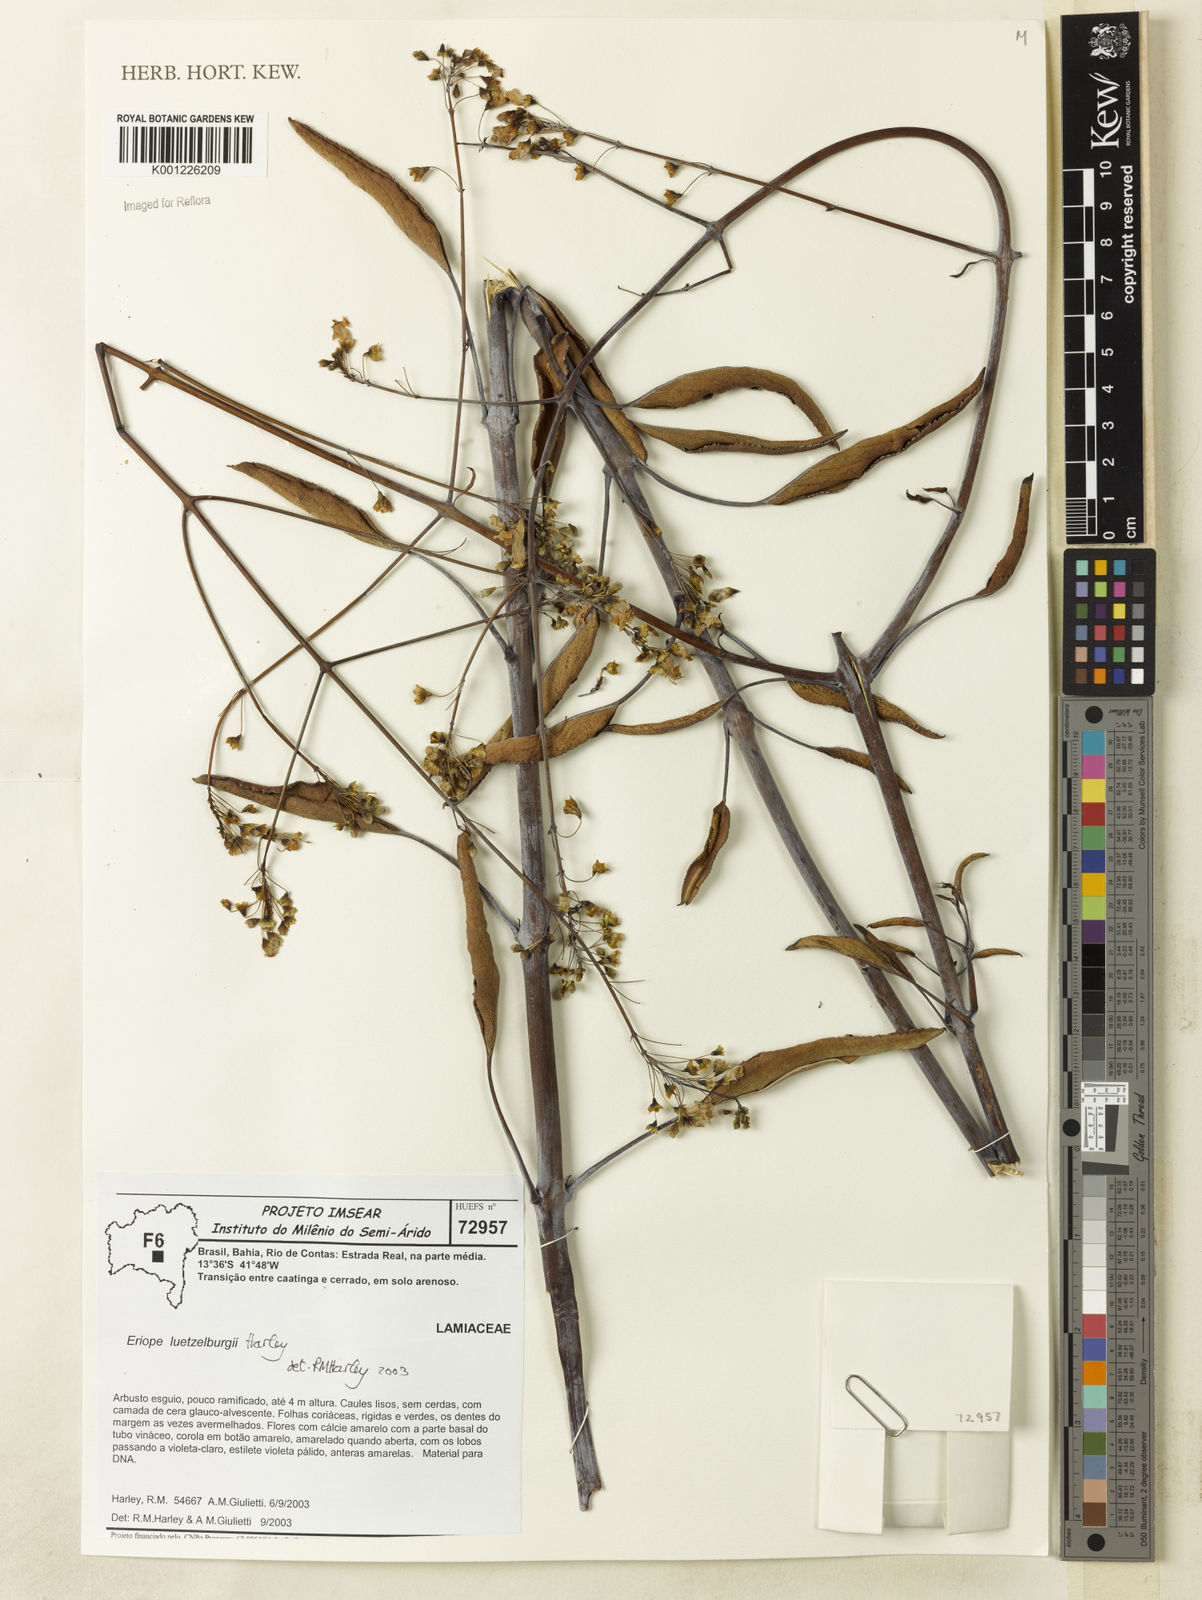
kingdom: Plantae
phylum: Tracheophyta
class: Magnoliopsida
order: Lamiales
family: Lamiaceae
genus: Eriope
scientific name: Eriope luetzelburgii
